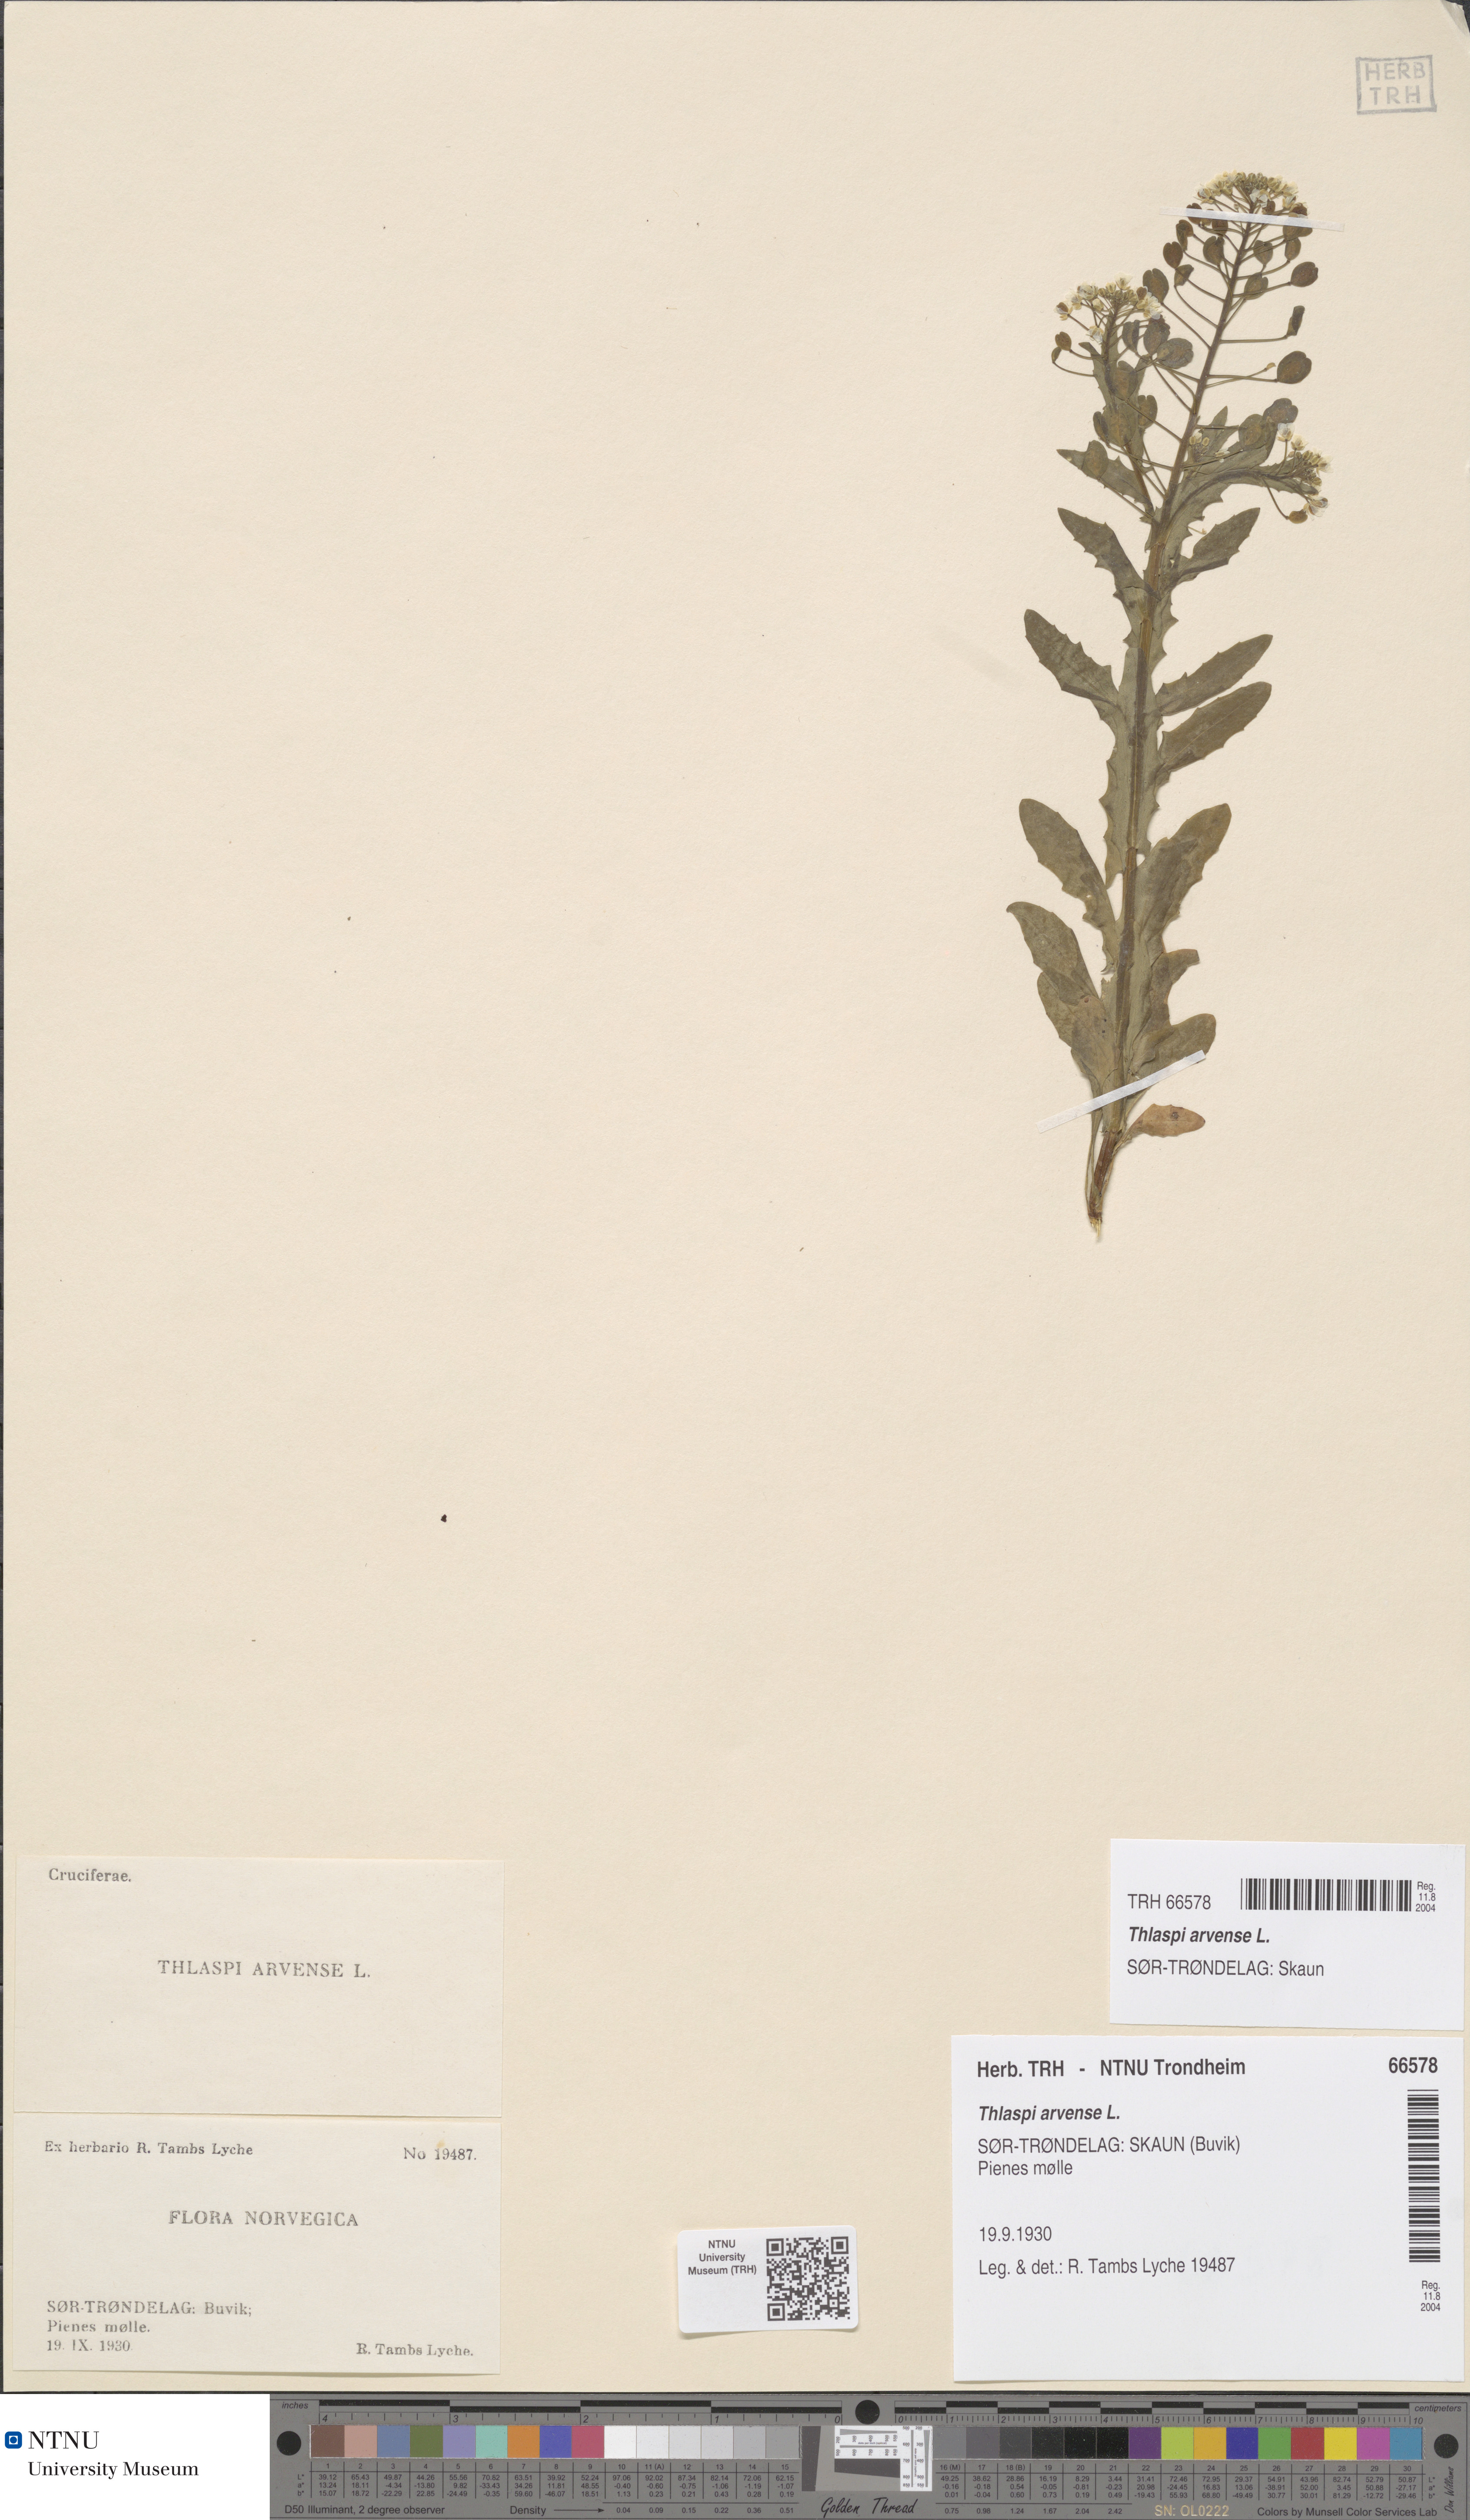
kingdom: Plantae
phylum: Tracheophyta
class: Magnoliopsida
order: Brassicales
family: Brassicaceae
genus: Thlaspi
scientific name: Thlaspi arvense
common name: Field pennycress
